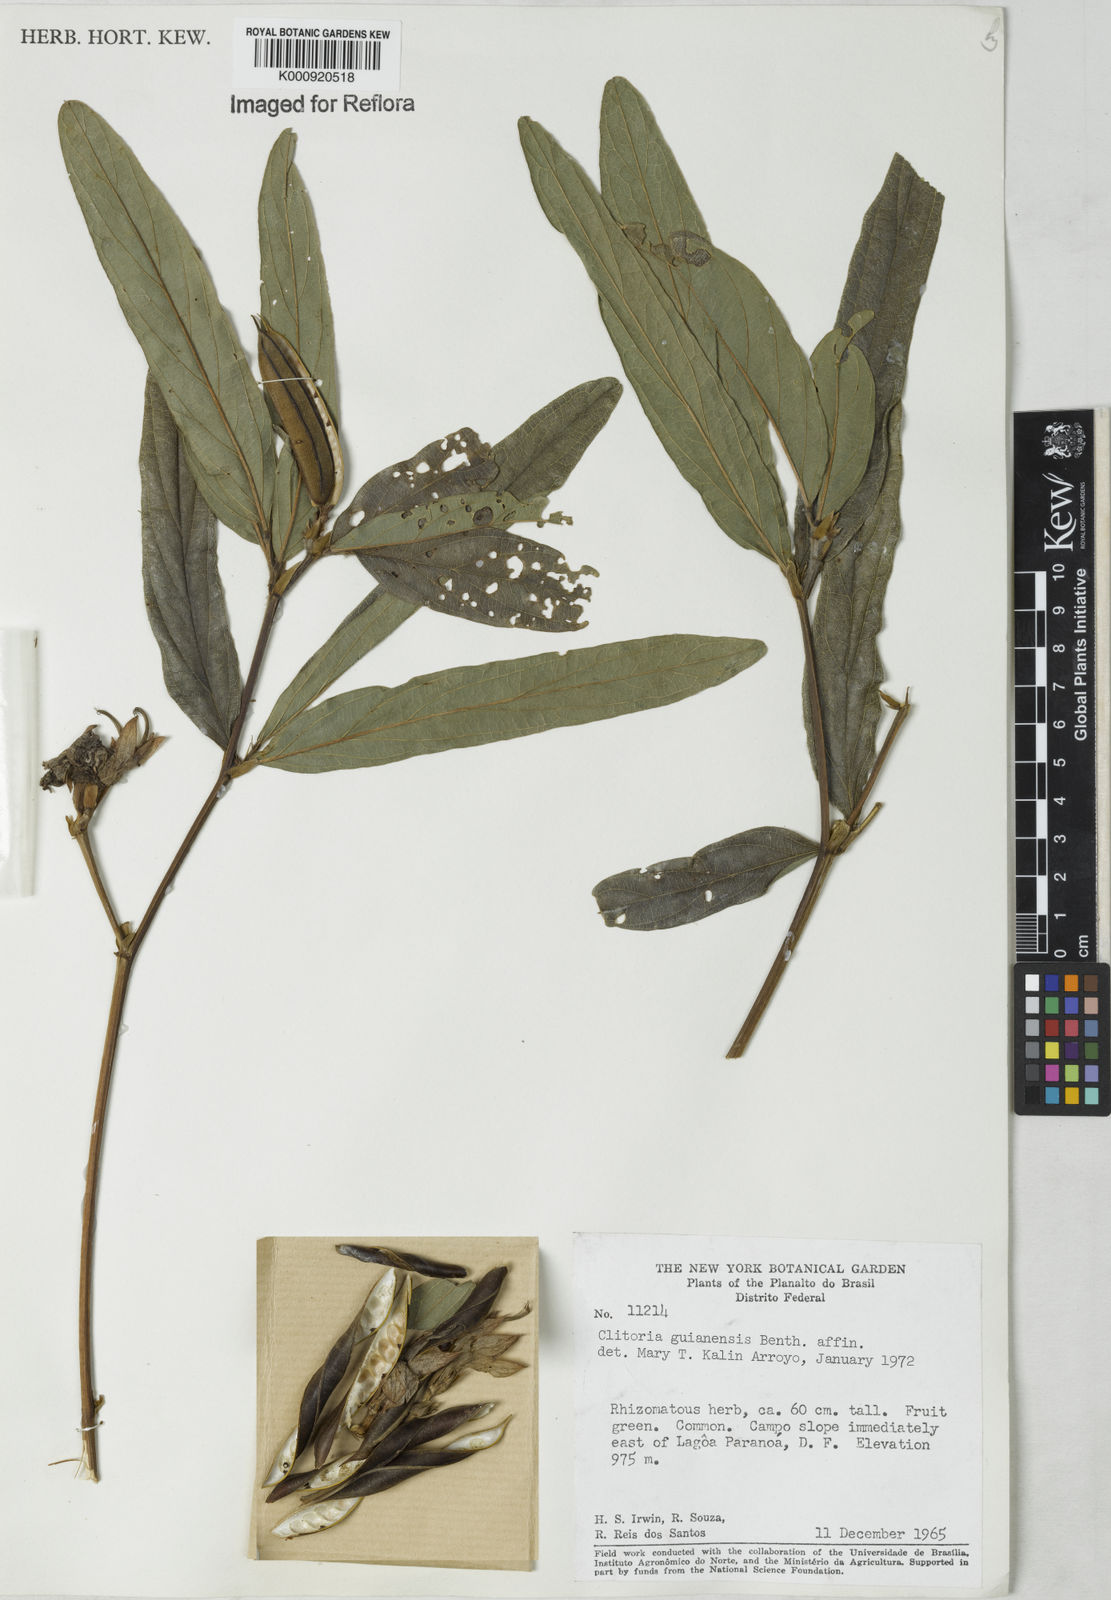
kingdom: Plantae
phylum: Tracheophyta
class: Magnoliopsida
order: Fabales
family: Fabaceae
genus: Clitoria
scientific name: Clitoria guianensis
